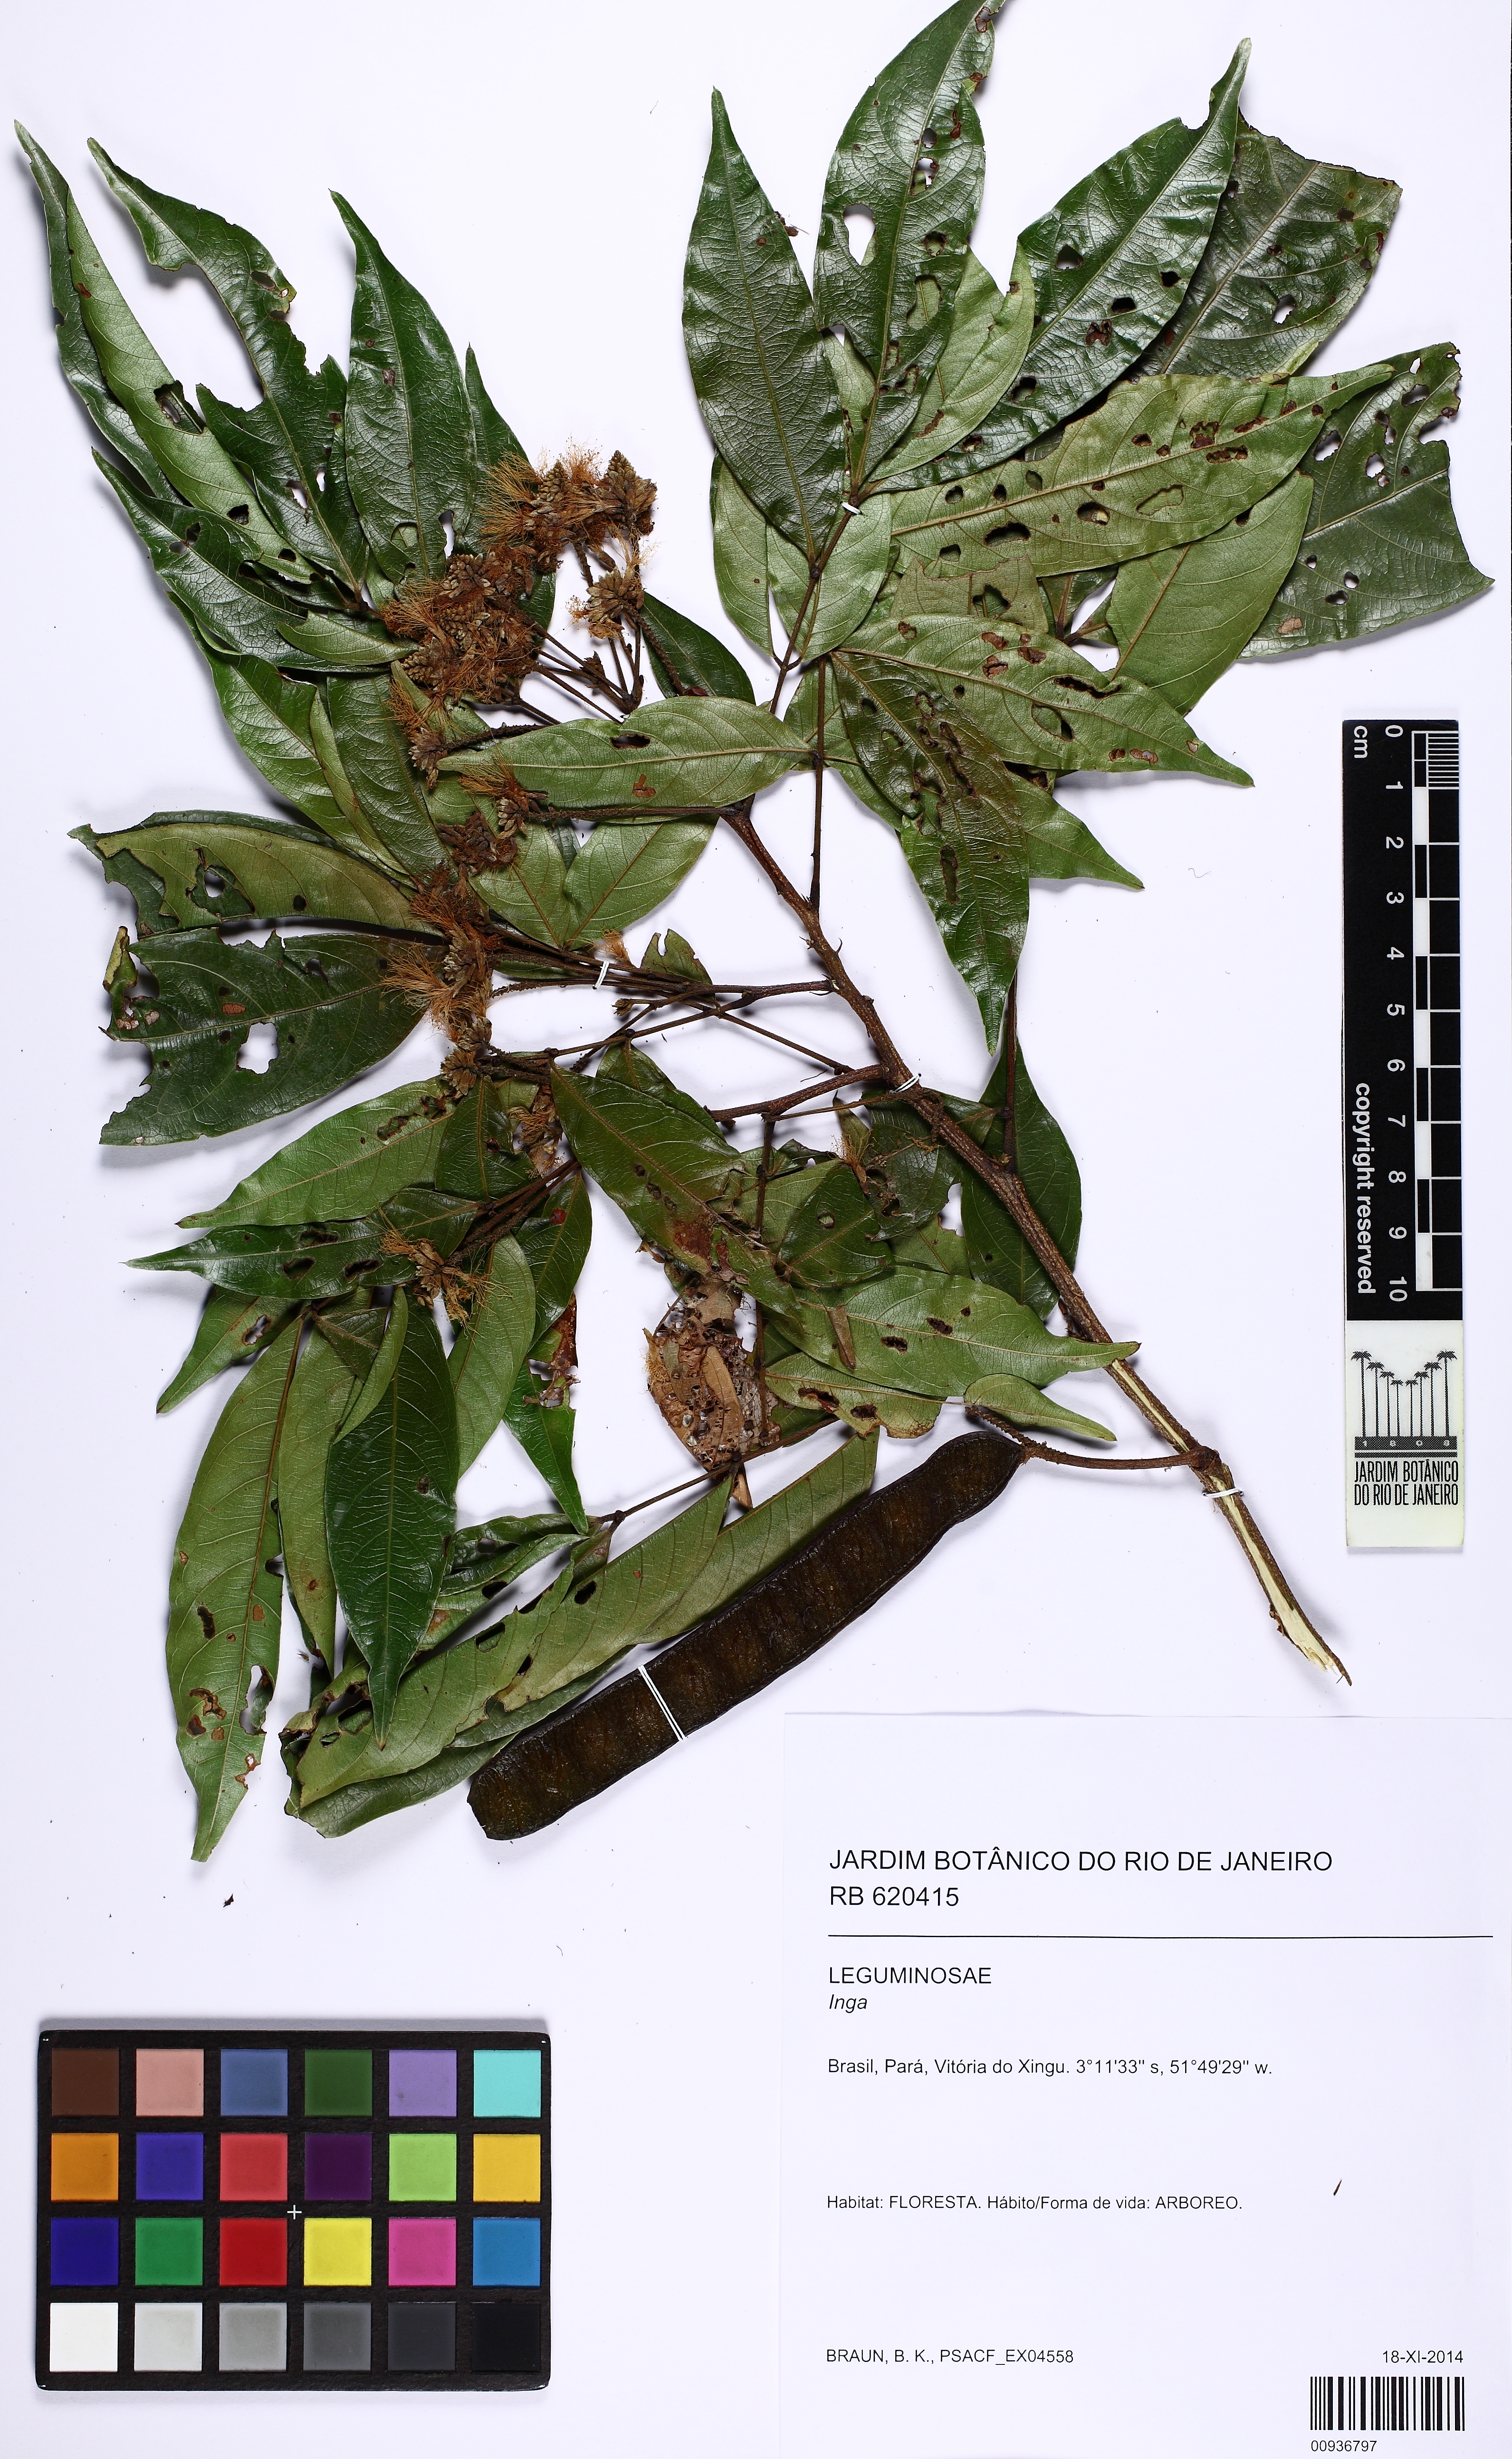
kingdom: Plantae
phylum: Tracheophyta
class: Magnoliopsida
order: Fabales
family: Fabaceae
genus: Inga
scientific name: Inga
